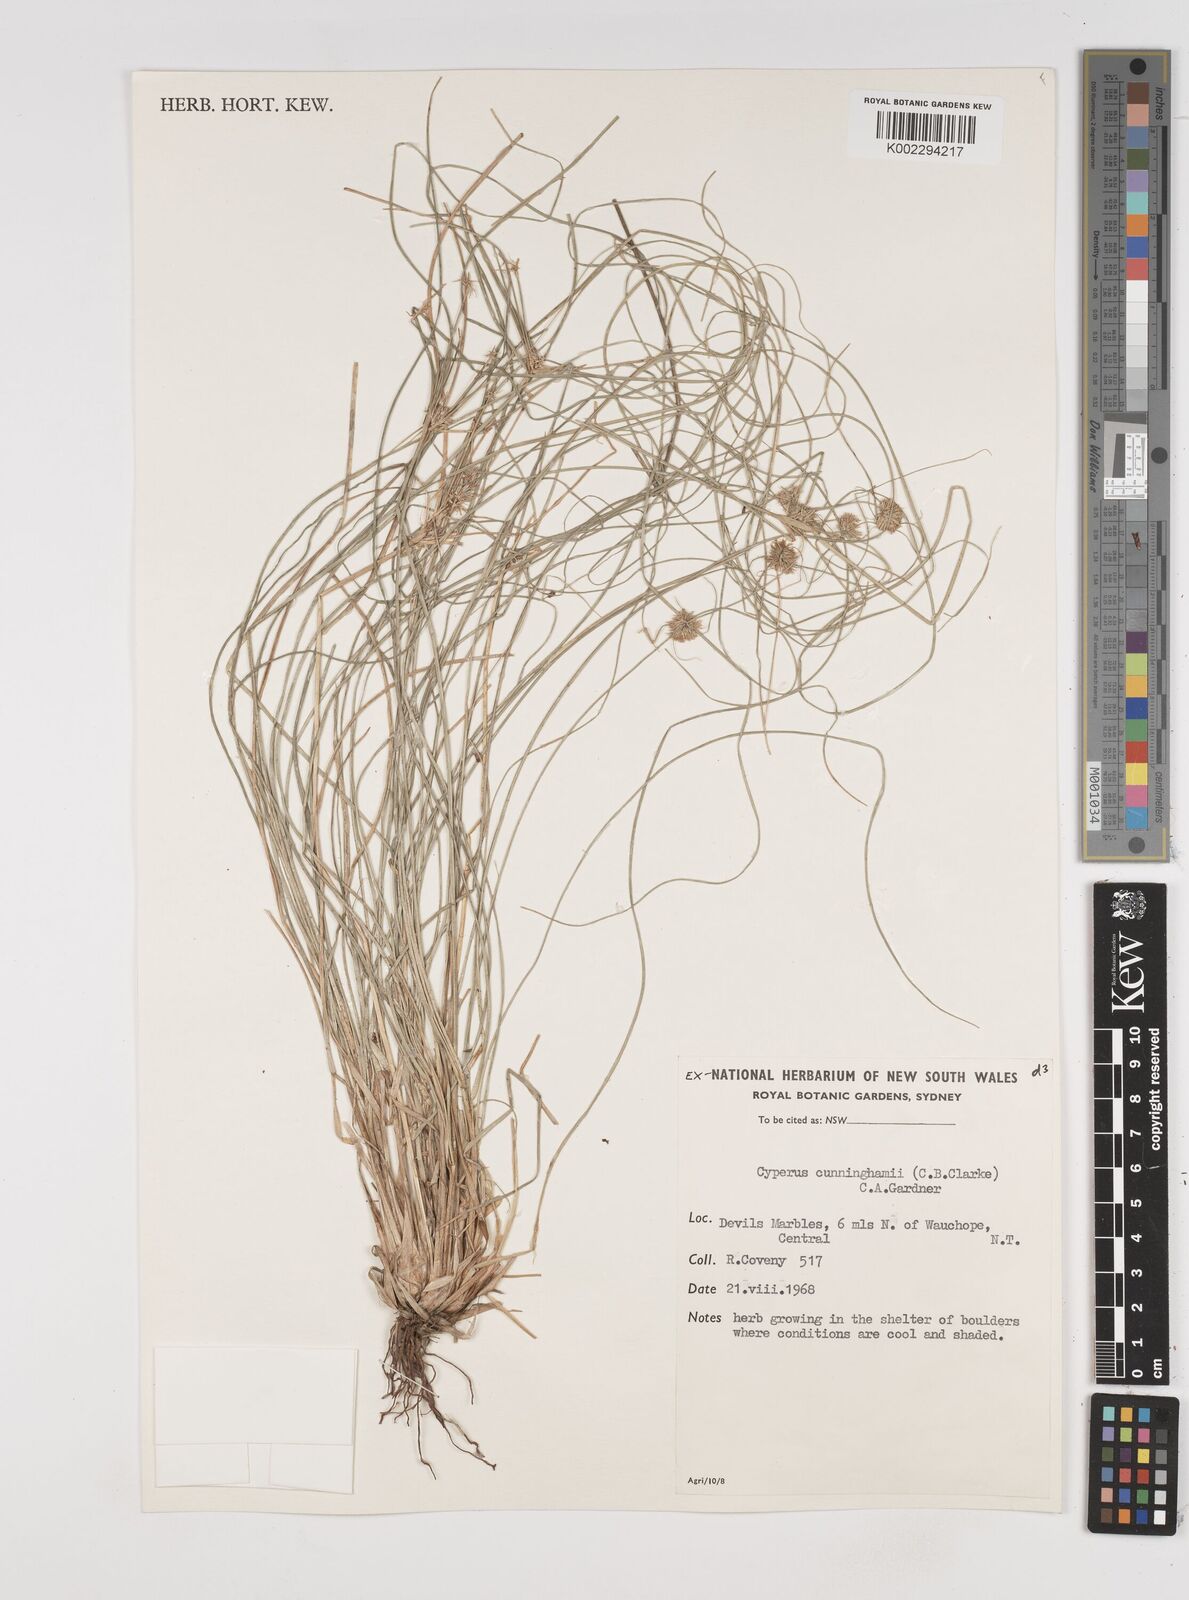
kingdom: Plantae
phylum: Tracheophyta
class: Liliopsida
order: Poales
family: Cyperaceae
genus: Cyperus
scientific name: Cyperus cunninghamii
